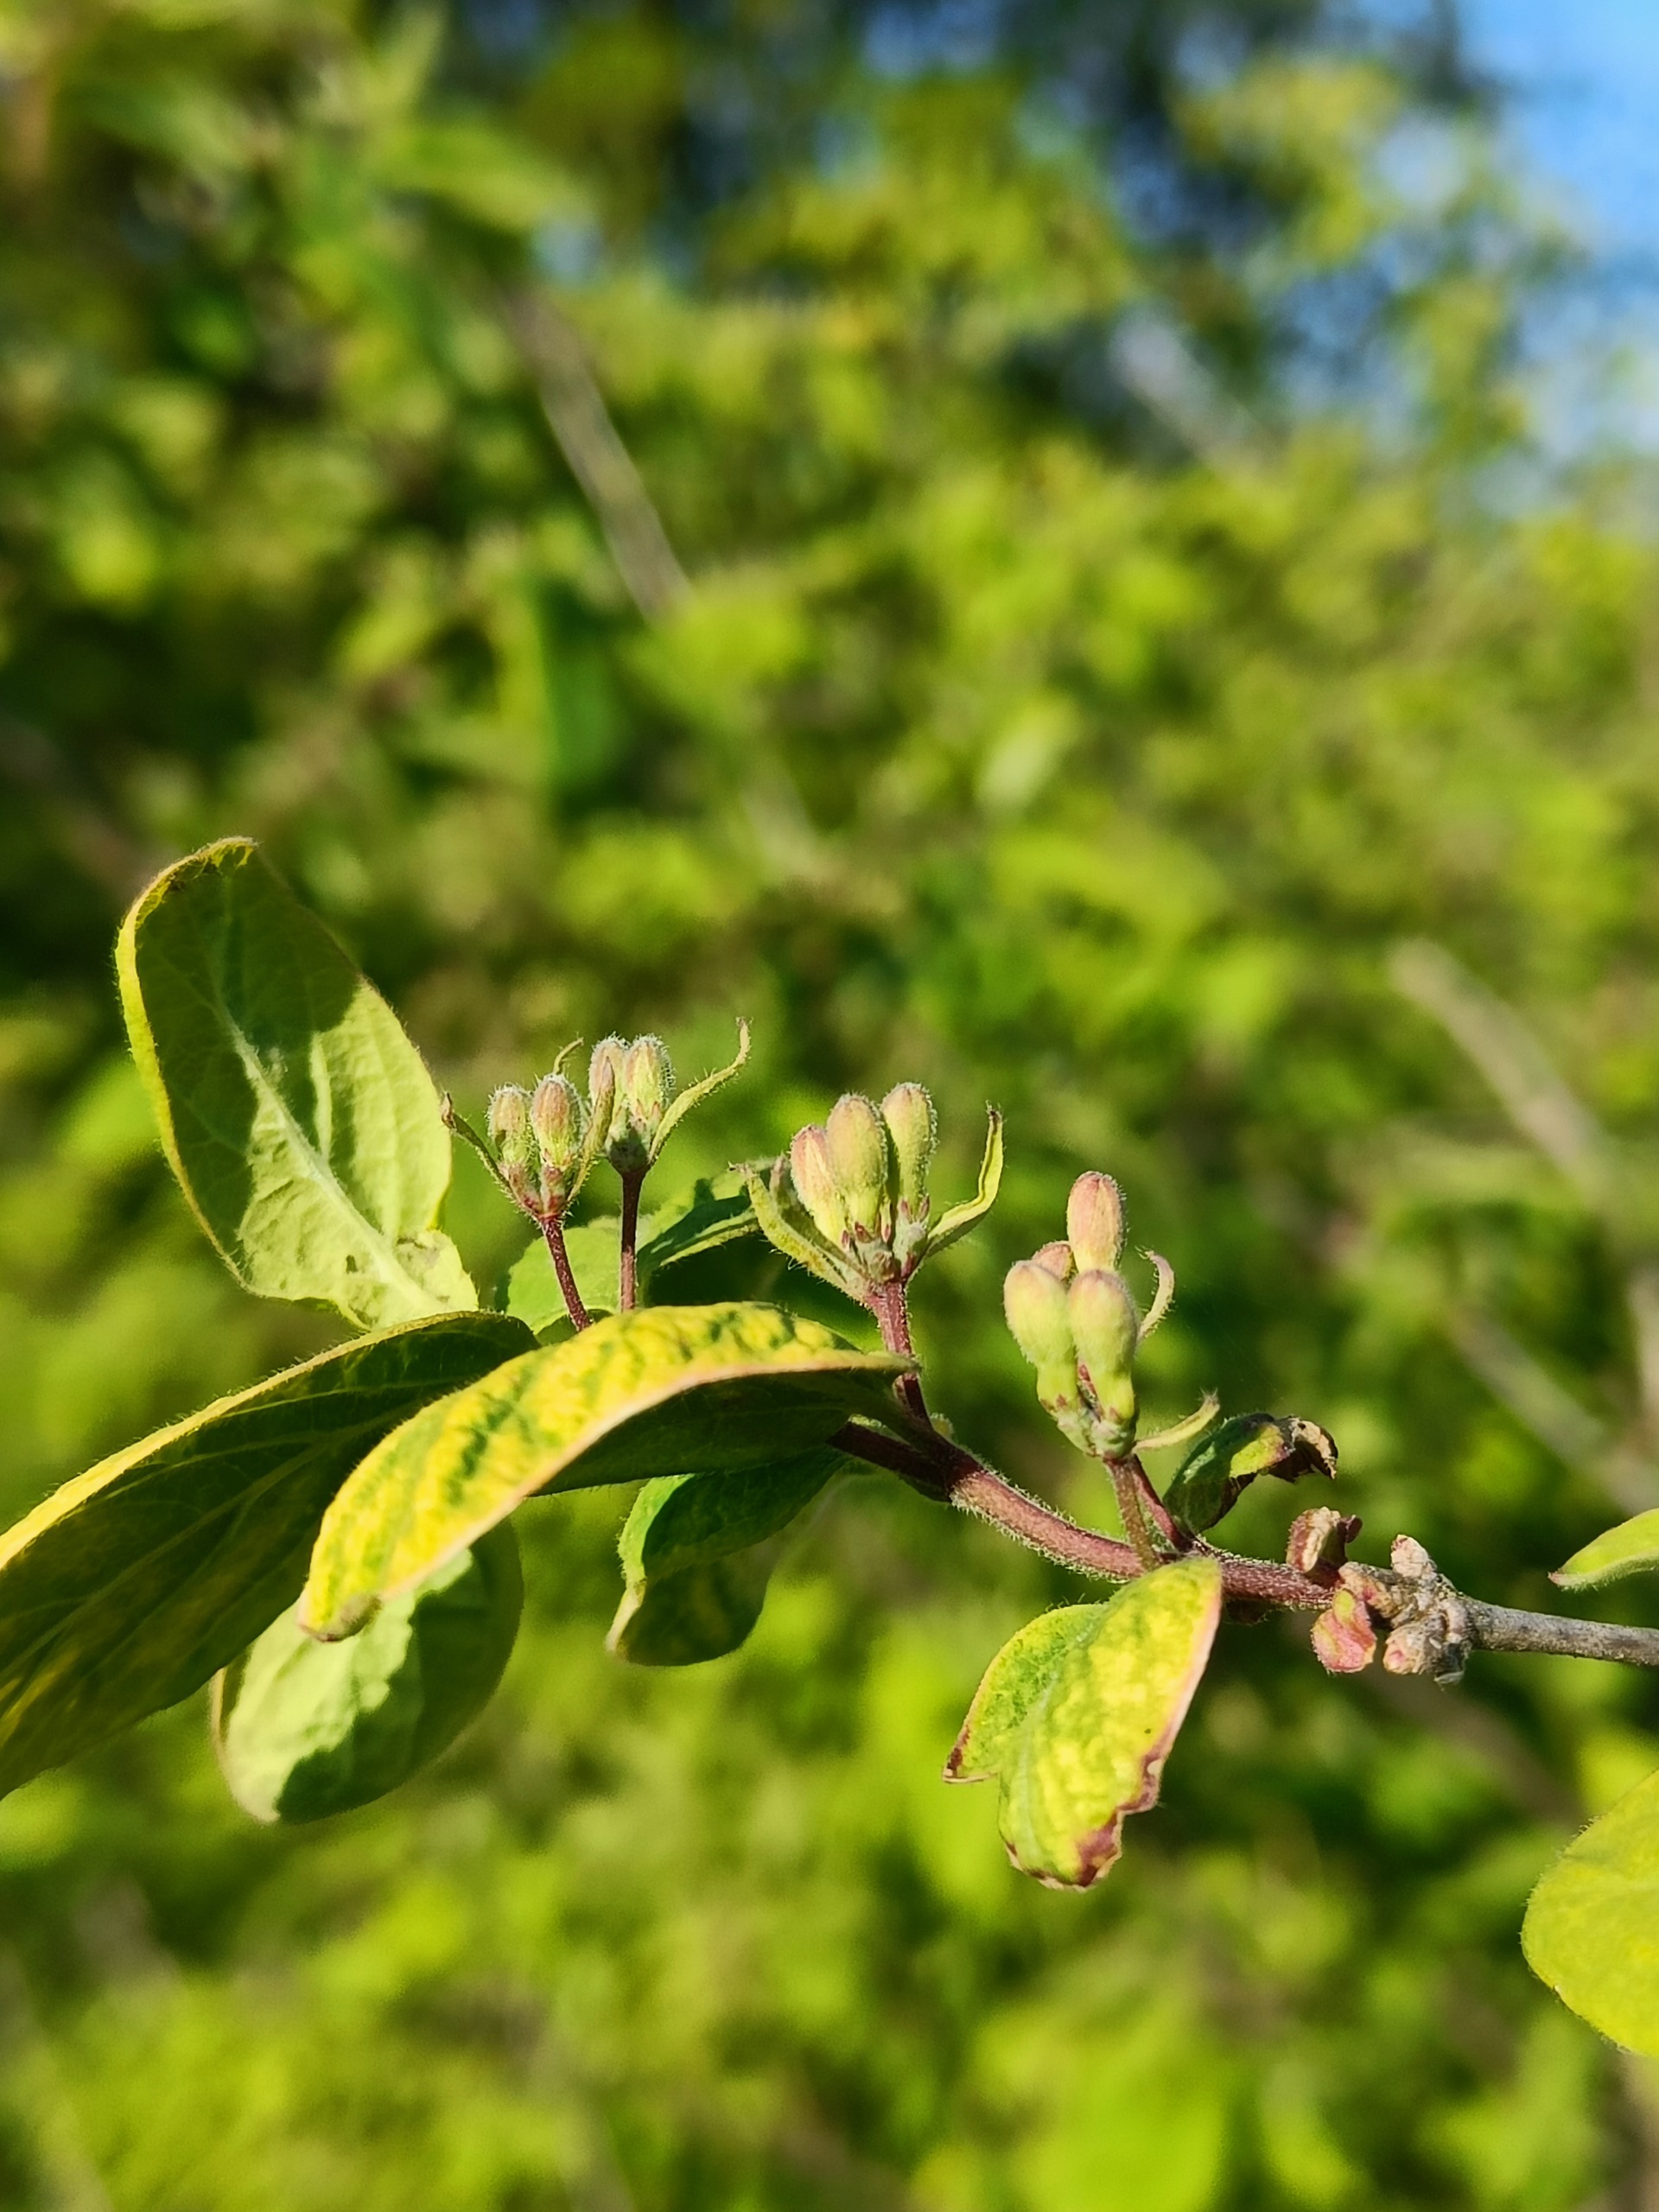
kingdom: Plantae
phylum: Tracheophyta
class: Magnoliopsida
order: Dipsacales
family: Caprifoliaceae
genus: Lonicera
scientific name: Lonicera xylosteum
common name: Dunet gedeblad
